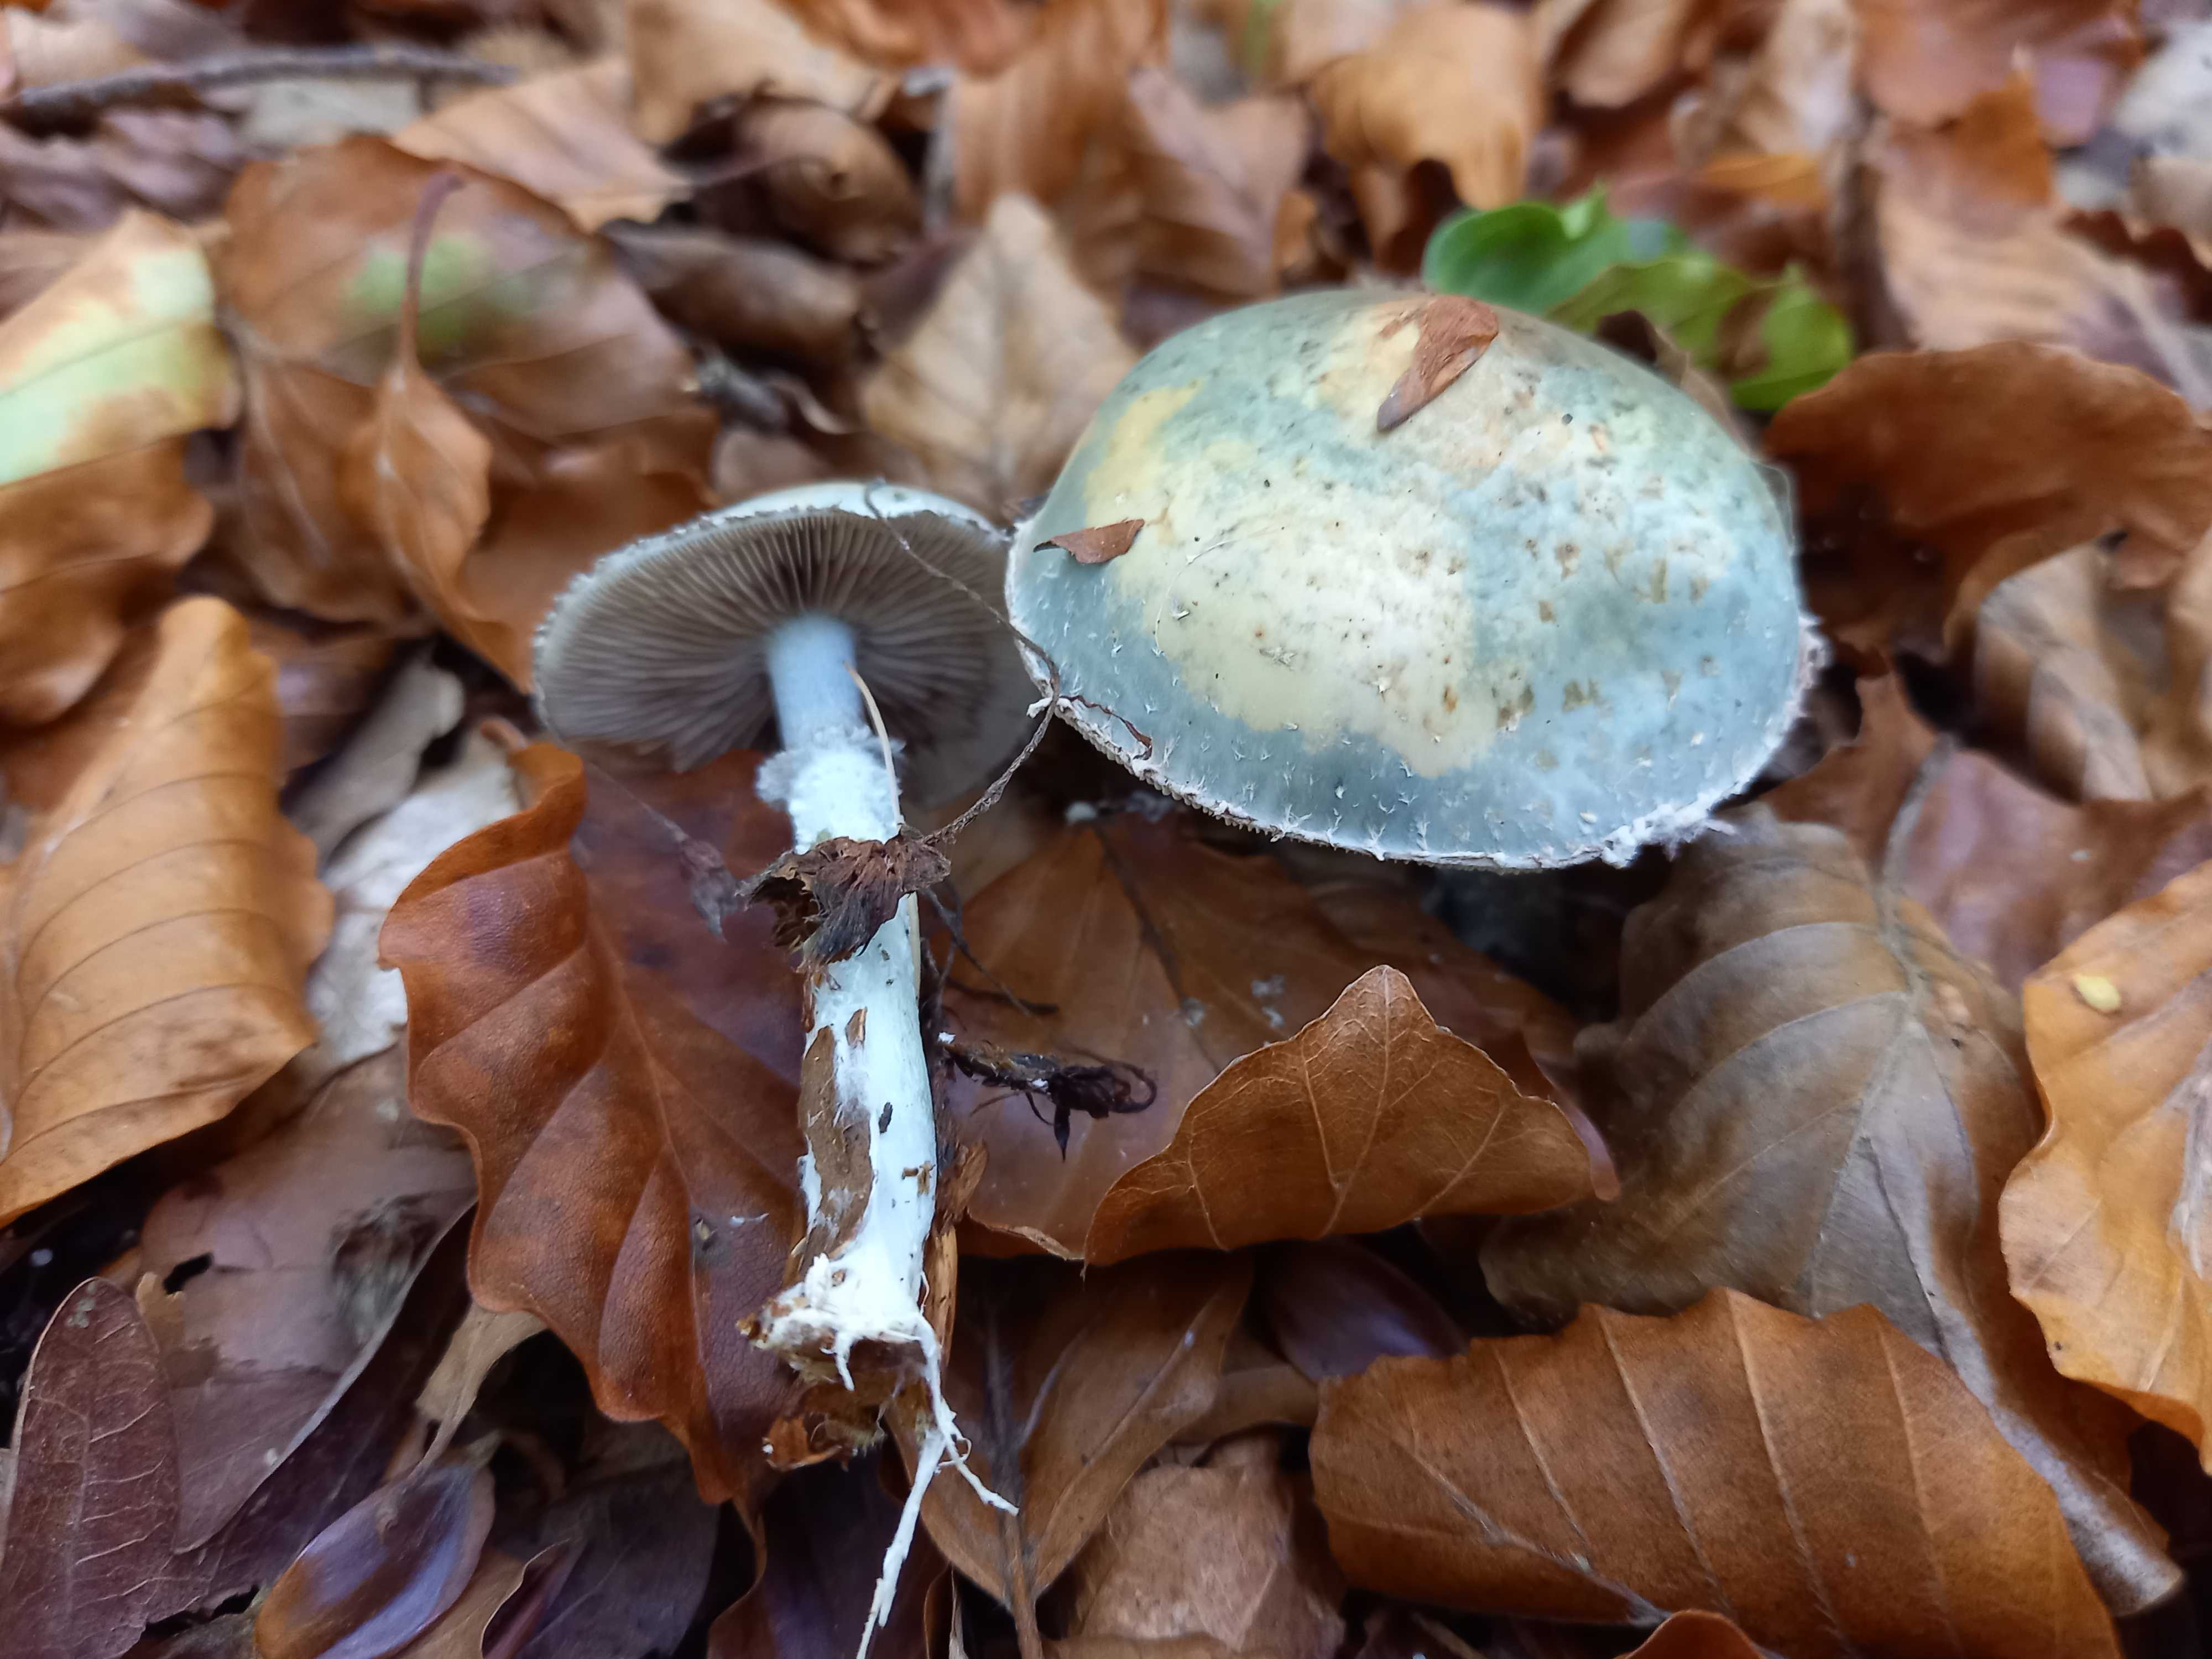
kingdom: Fungi
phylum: Basidiomycota
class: Agaricomycetes
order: Agaricales
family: Strophariaceae
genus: Stropharia
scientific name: Stropharia aeruginosa
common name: spanskgrøn bredblad
